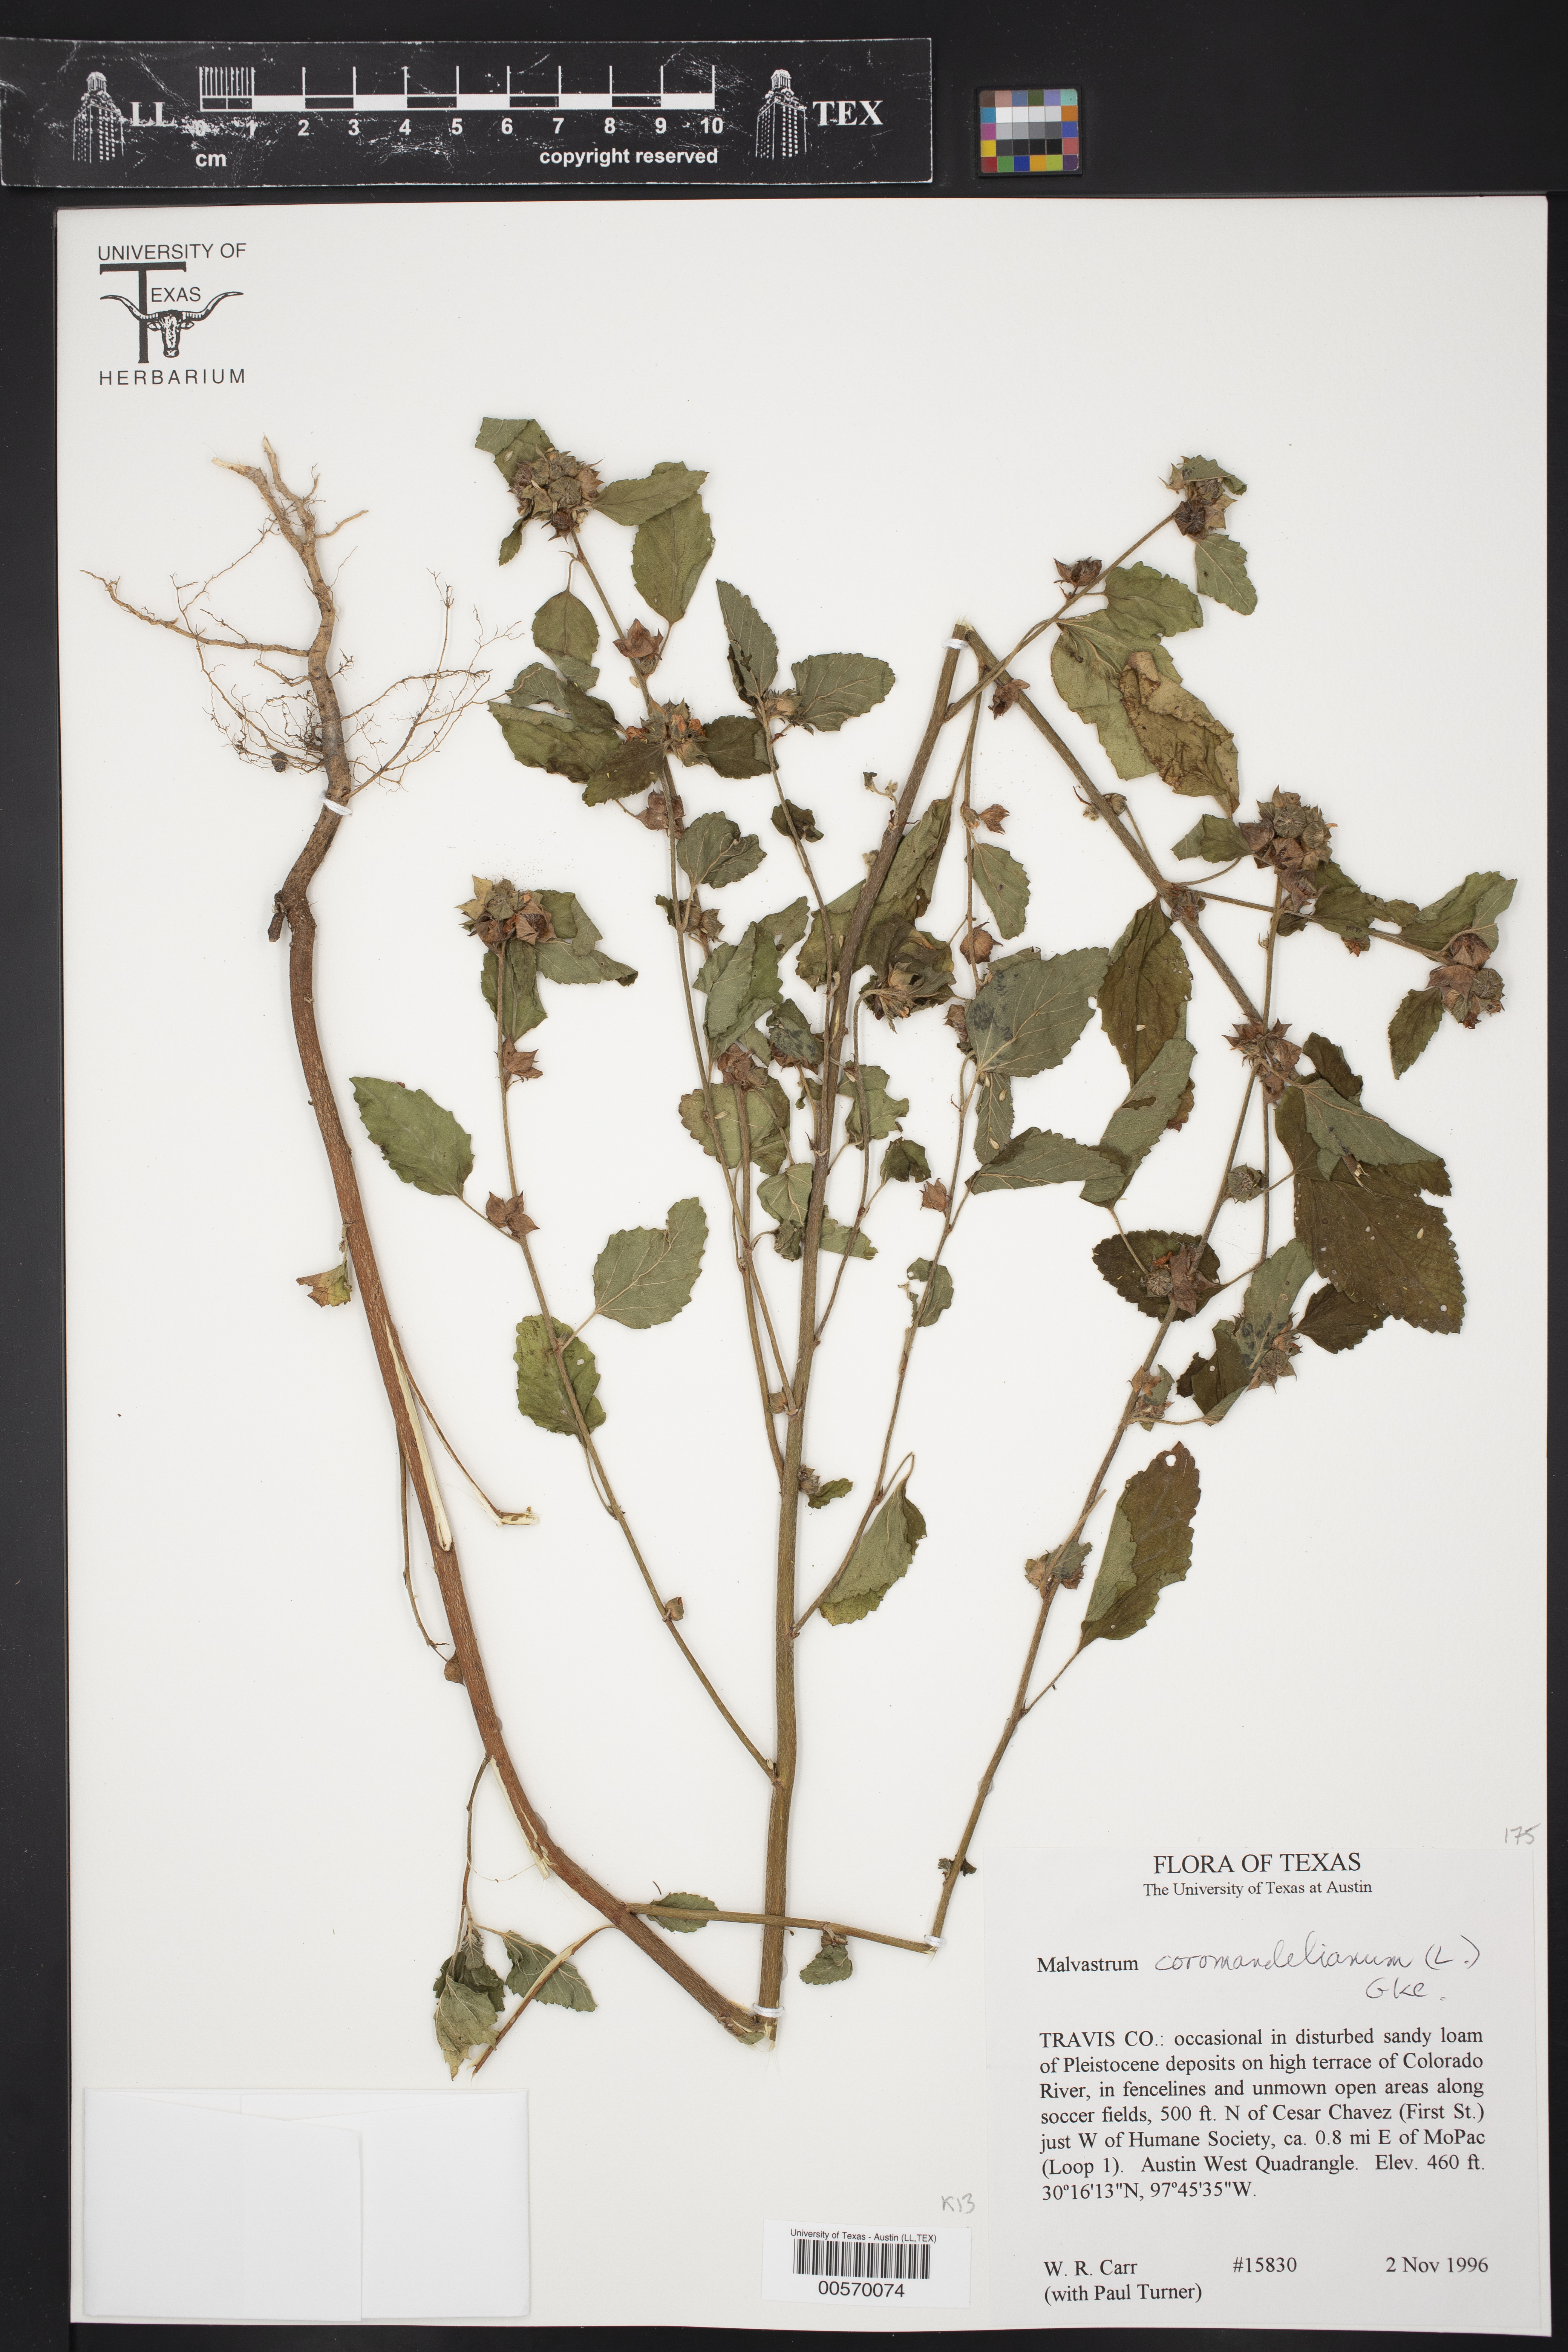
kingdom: Plantae
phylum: Tracheophyta
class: Magnoliopsida
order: Malvales
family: Malvaceae
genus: Malvastrum
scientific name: Malvastrum coromandelianum
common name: Threelobe false mallow
